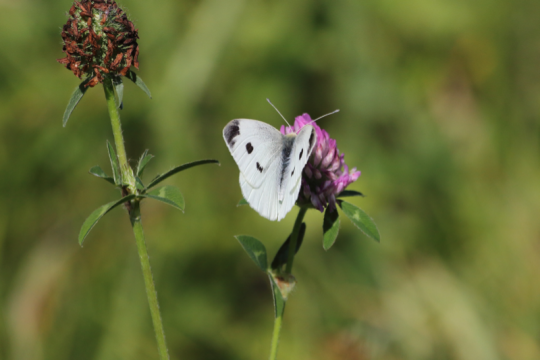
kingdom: Animalia
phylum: Arthropoda
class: Insecta
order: Lepidoptera
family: Pieridae
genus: Pieris
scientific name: Pieris rapae
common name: Cabbage White
